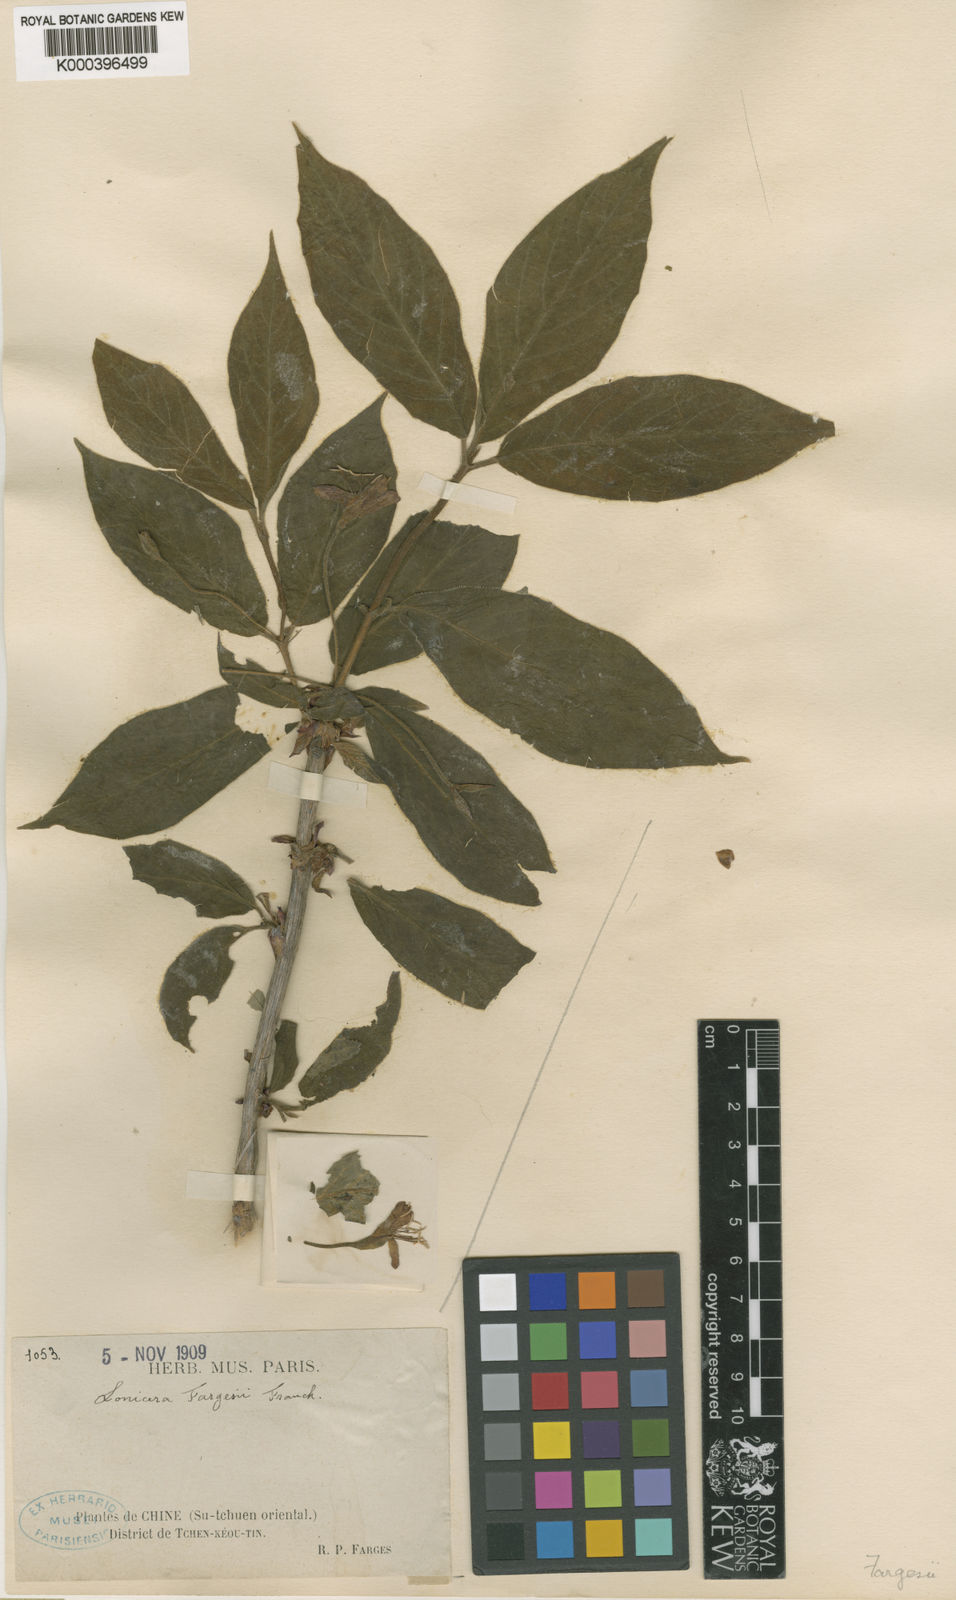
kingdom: Plantae
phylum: Tracheophyta
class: Magnoliopsida
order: Dipsacales
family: Caprifoliaceae
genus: Lonicera
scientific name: Lonicera fargesii
